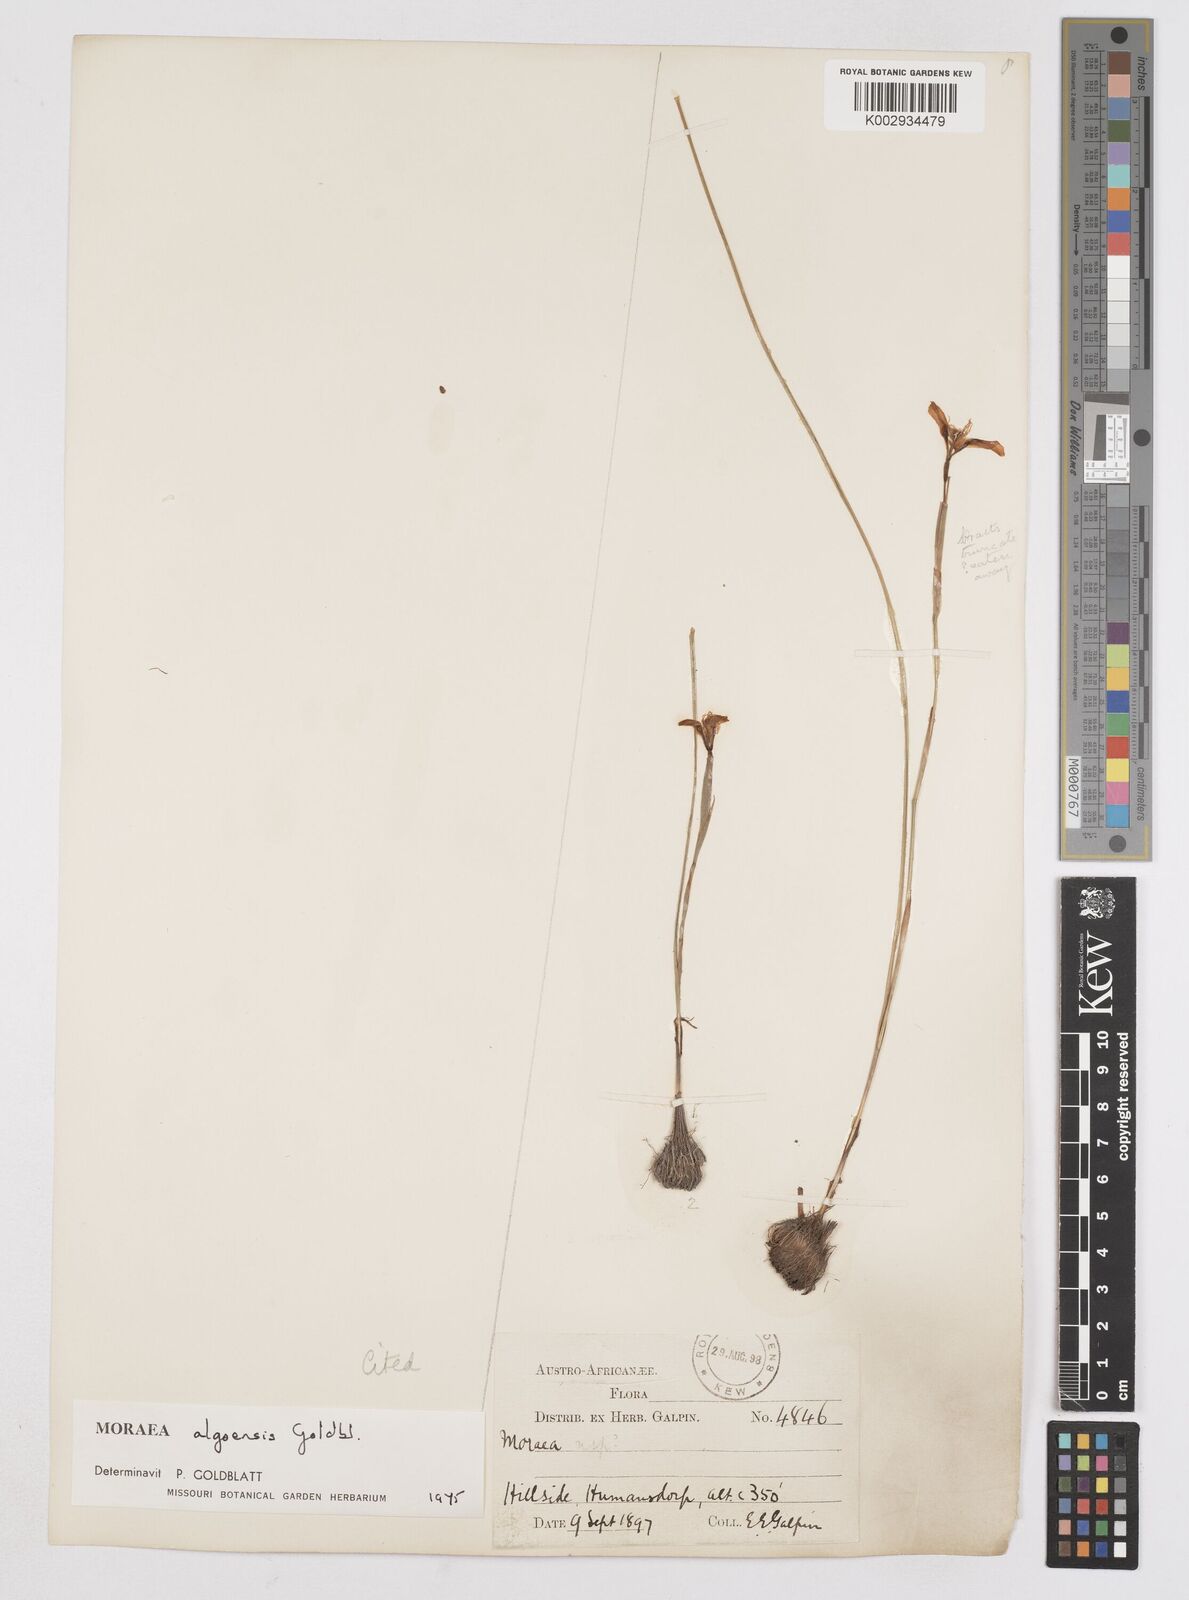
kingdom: Plantae
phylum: Tracheophyta
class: Liliopsida
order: Asparagales
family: Iridaceae
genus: Moraea
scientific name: Moraea algoensis
